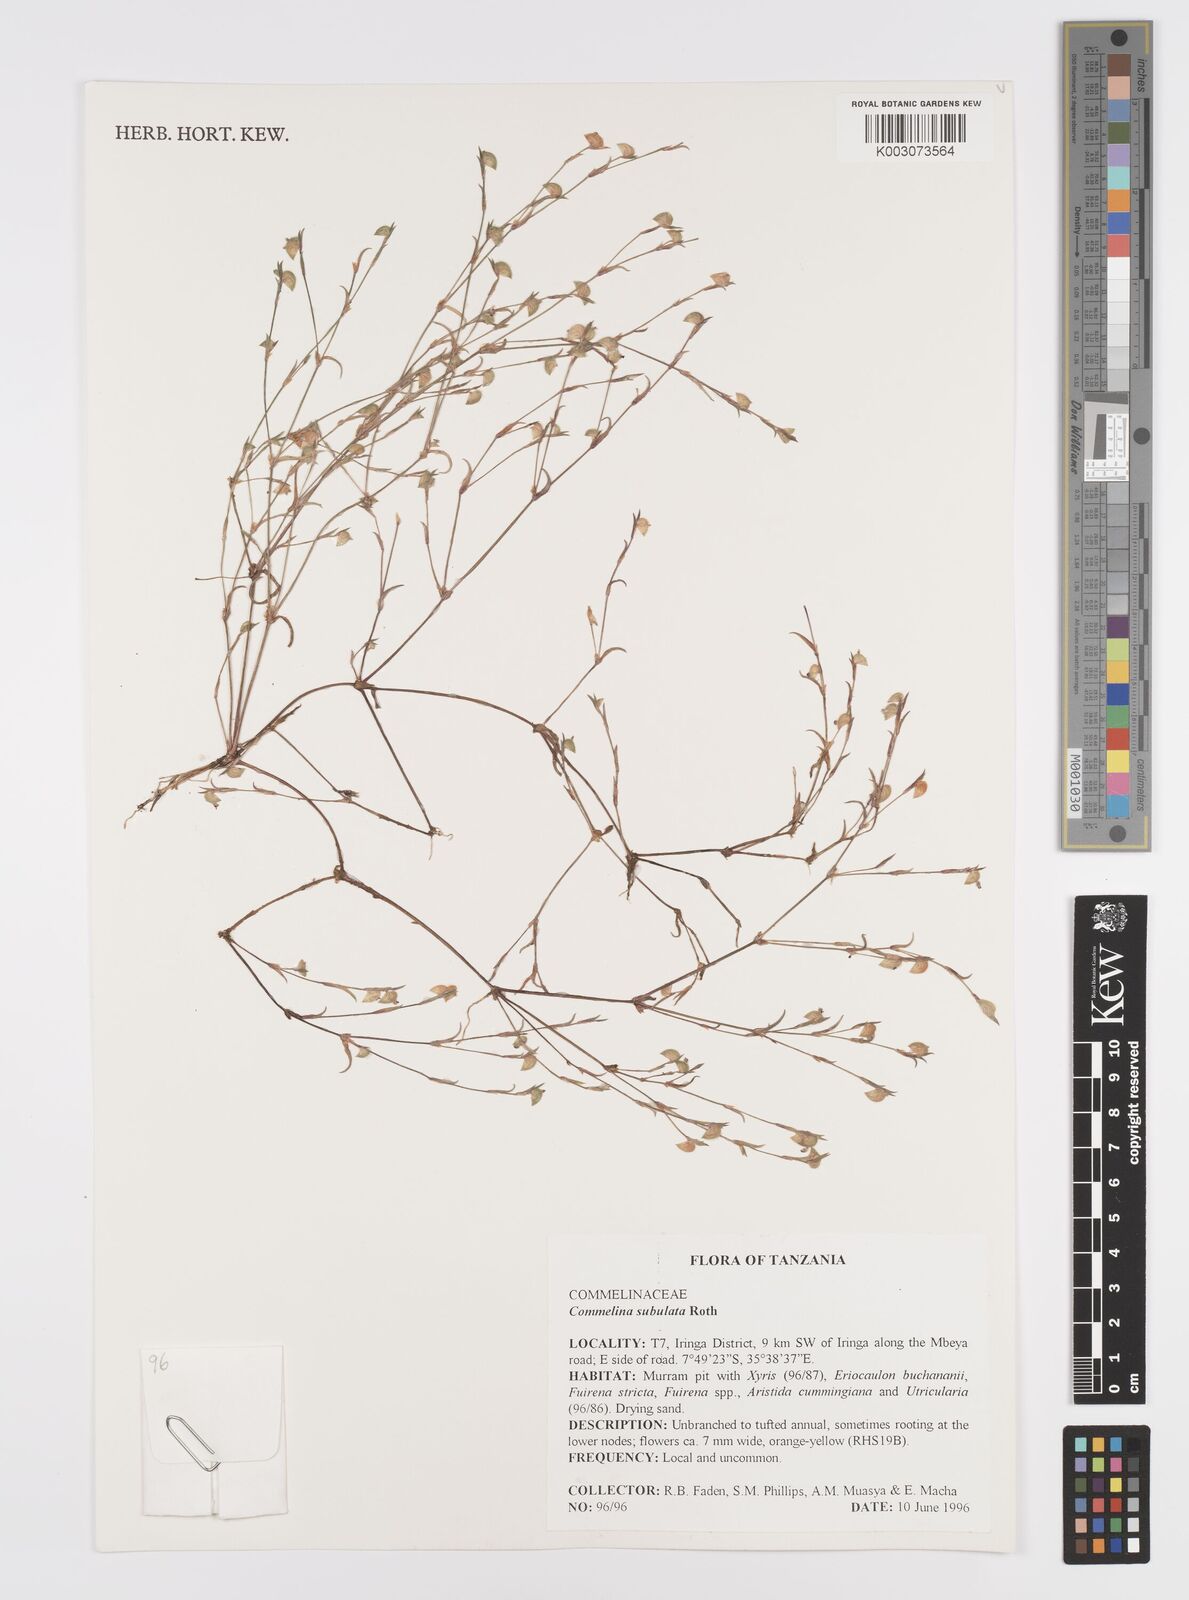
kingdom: Plantae
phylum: Tracheophyta
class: Liliopsida
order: Commelinales
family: Commelinaceae
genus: Commelina
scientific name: Commelina subulata
